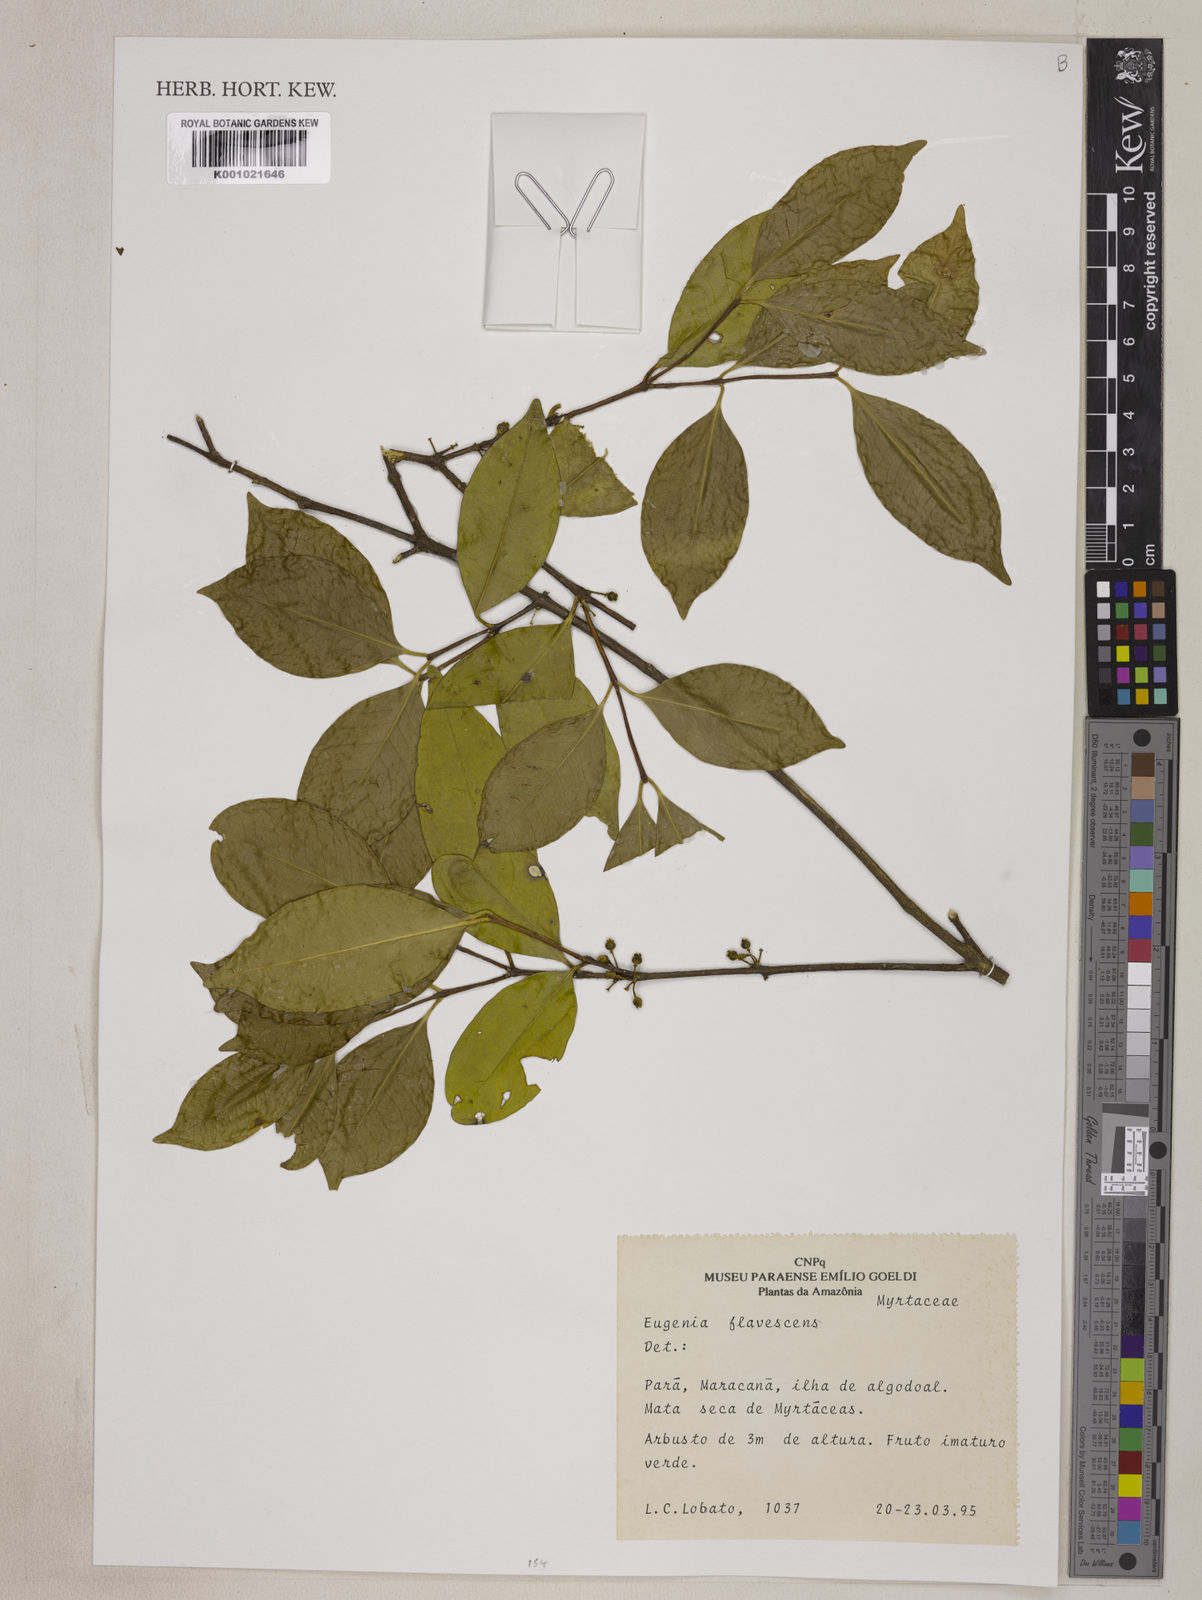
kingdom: Plantae
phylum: Tracheophyta
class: Magnoliopsida
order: Myrtales
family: Myrtaceae
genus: Eugenia
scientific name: Eugenia flavescens
